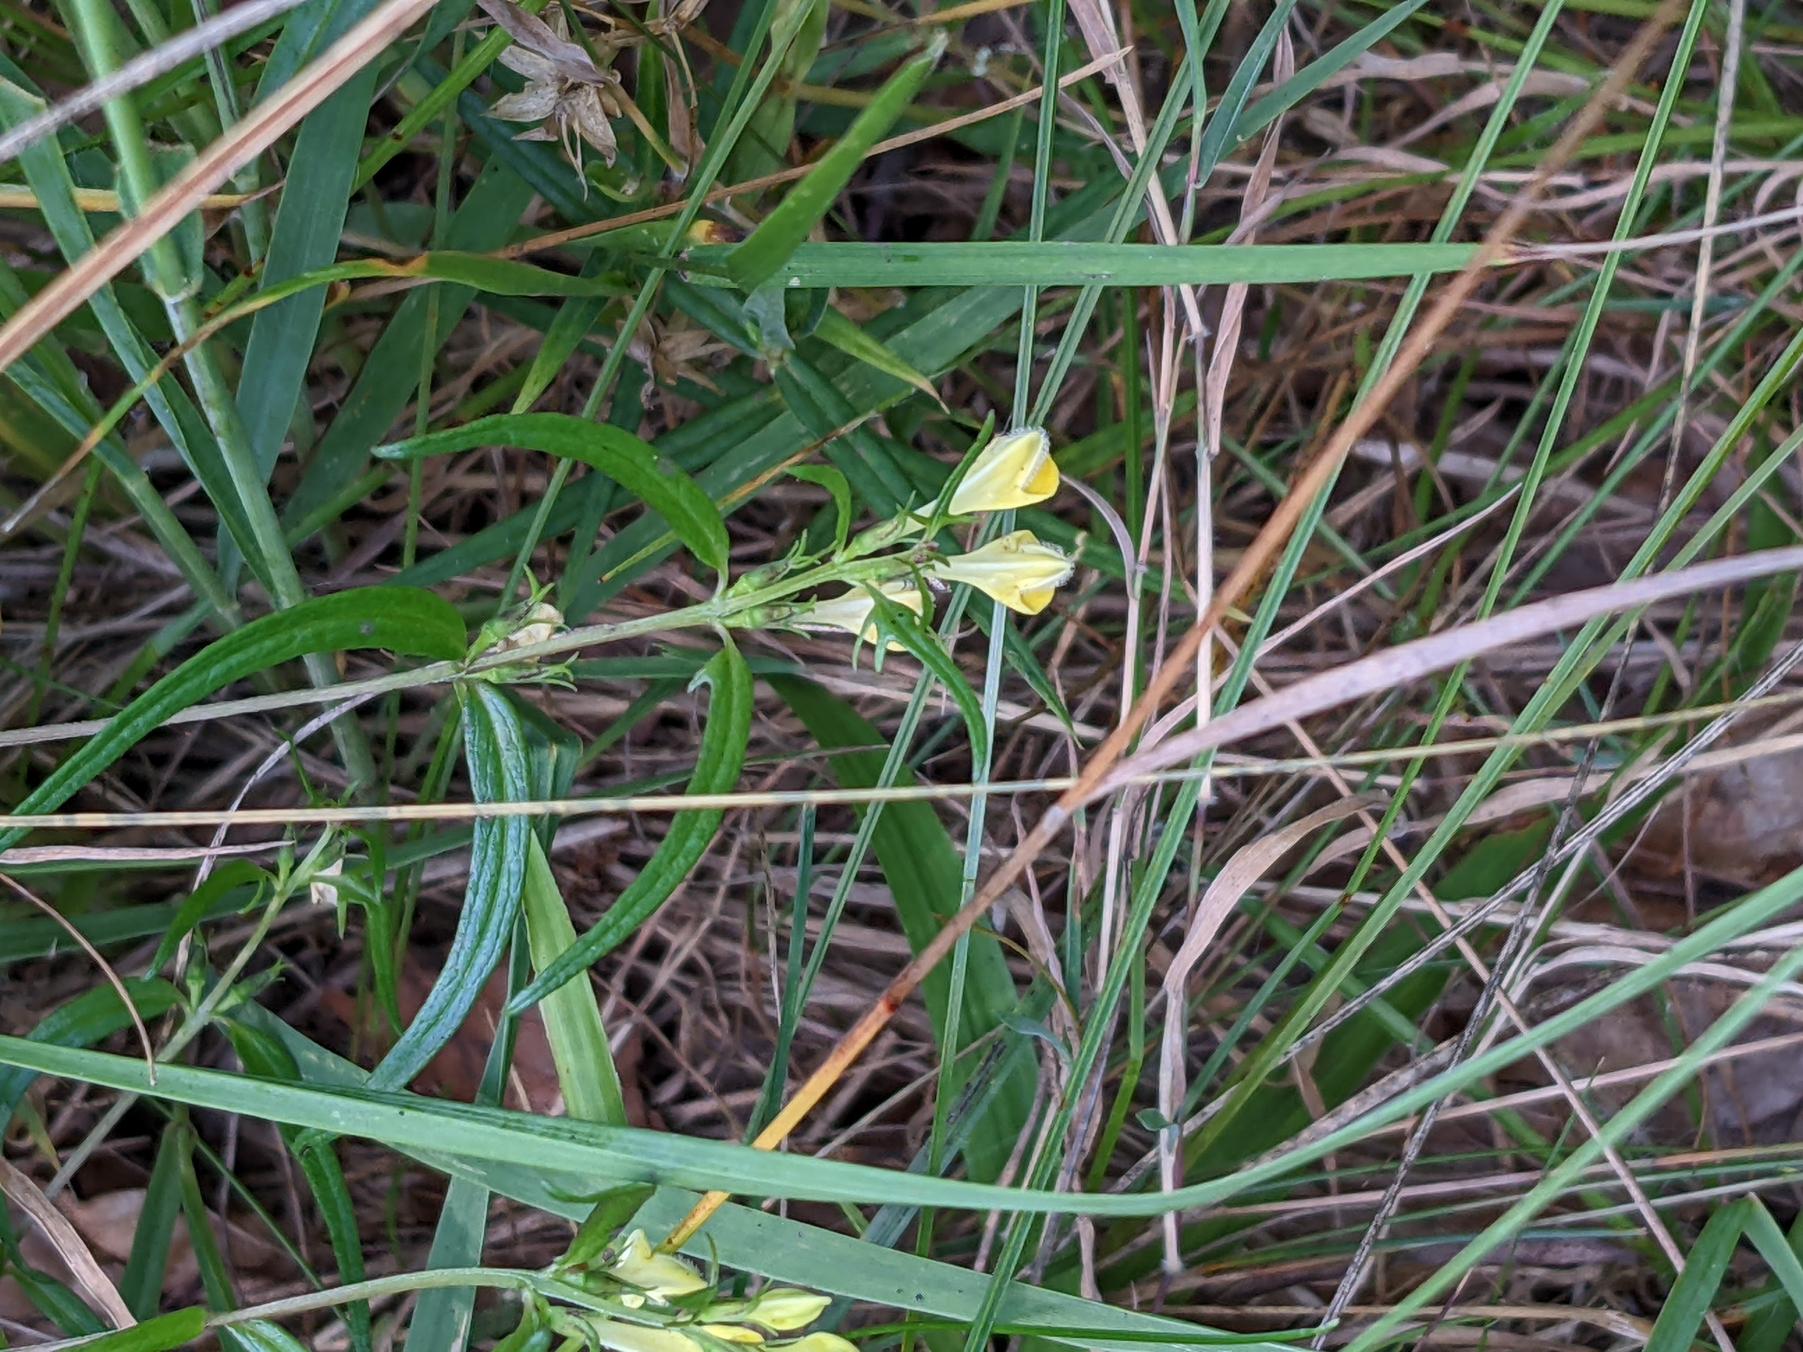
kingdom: Plantae
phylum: Tracheophyta
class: Magnoliopsida
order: Lamiales
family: Orobanchaceae
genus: Melampyrum
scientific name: Melampyrum pratense
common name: Almindelig kohvede
